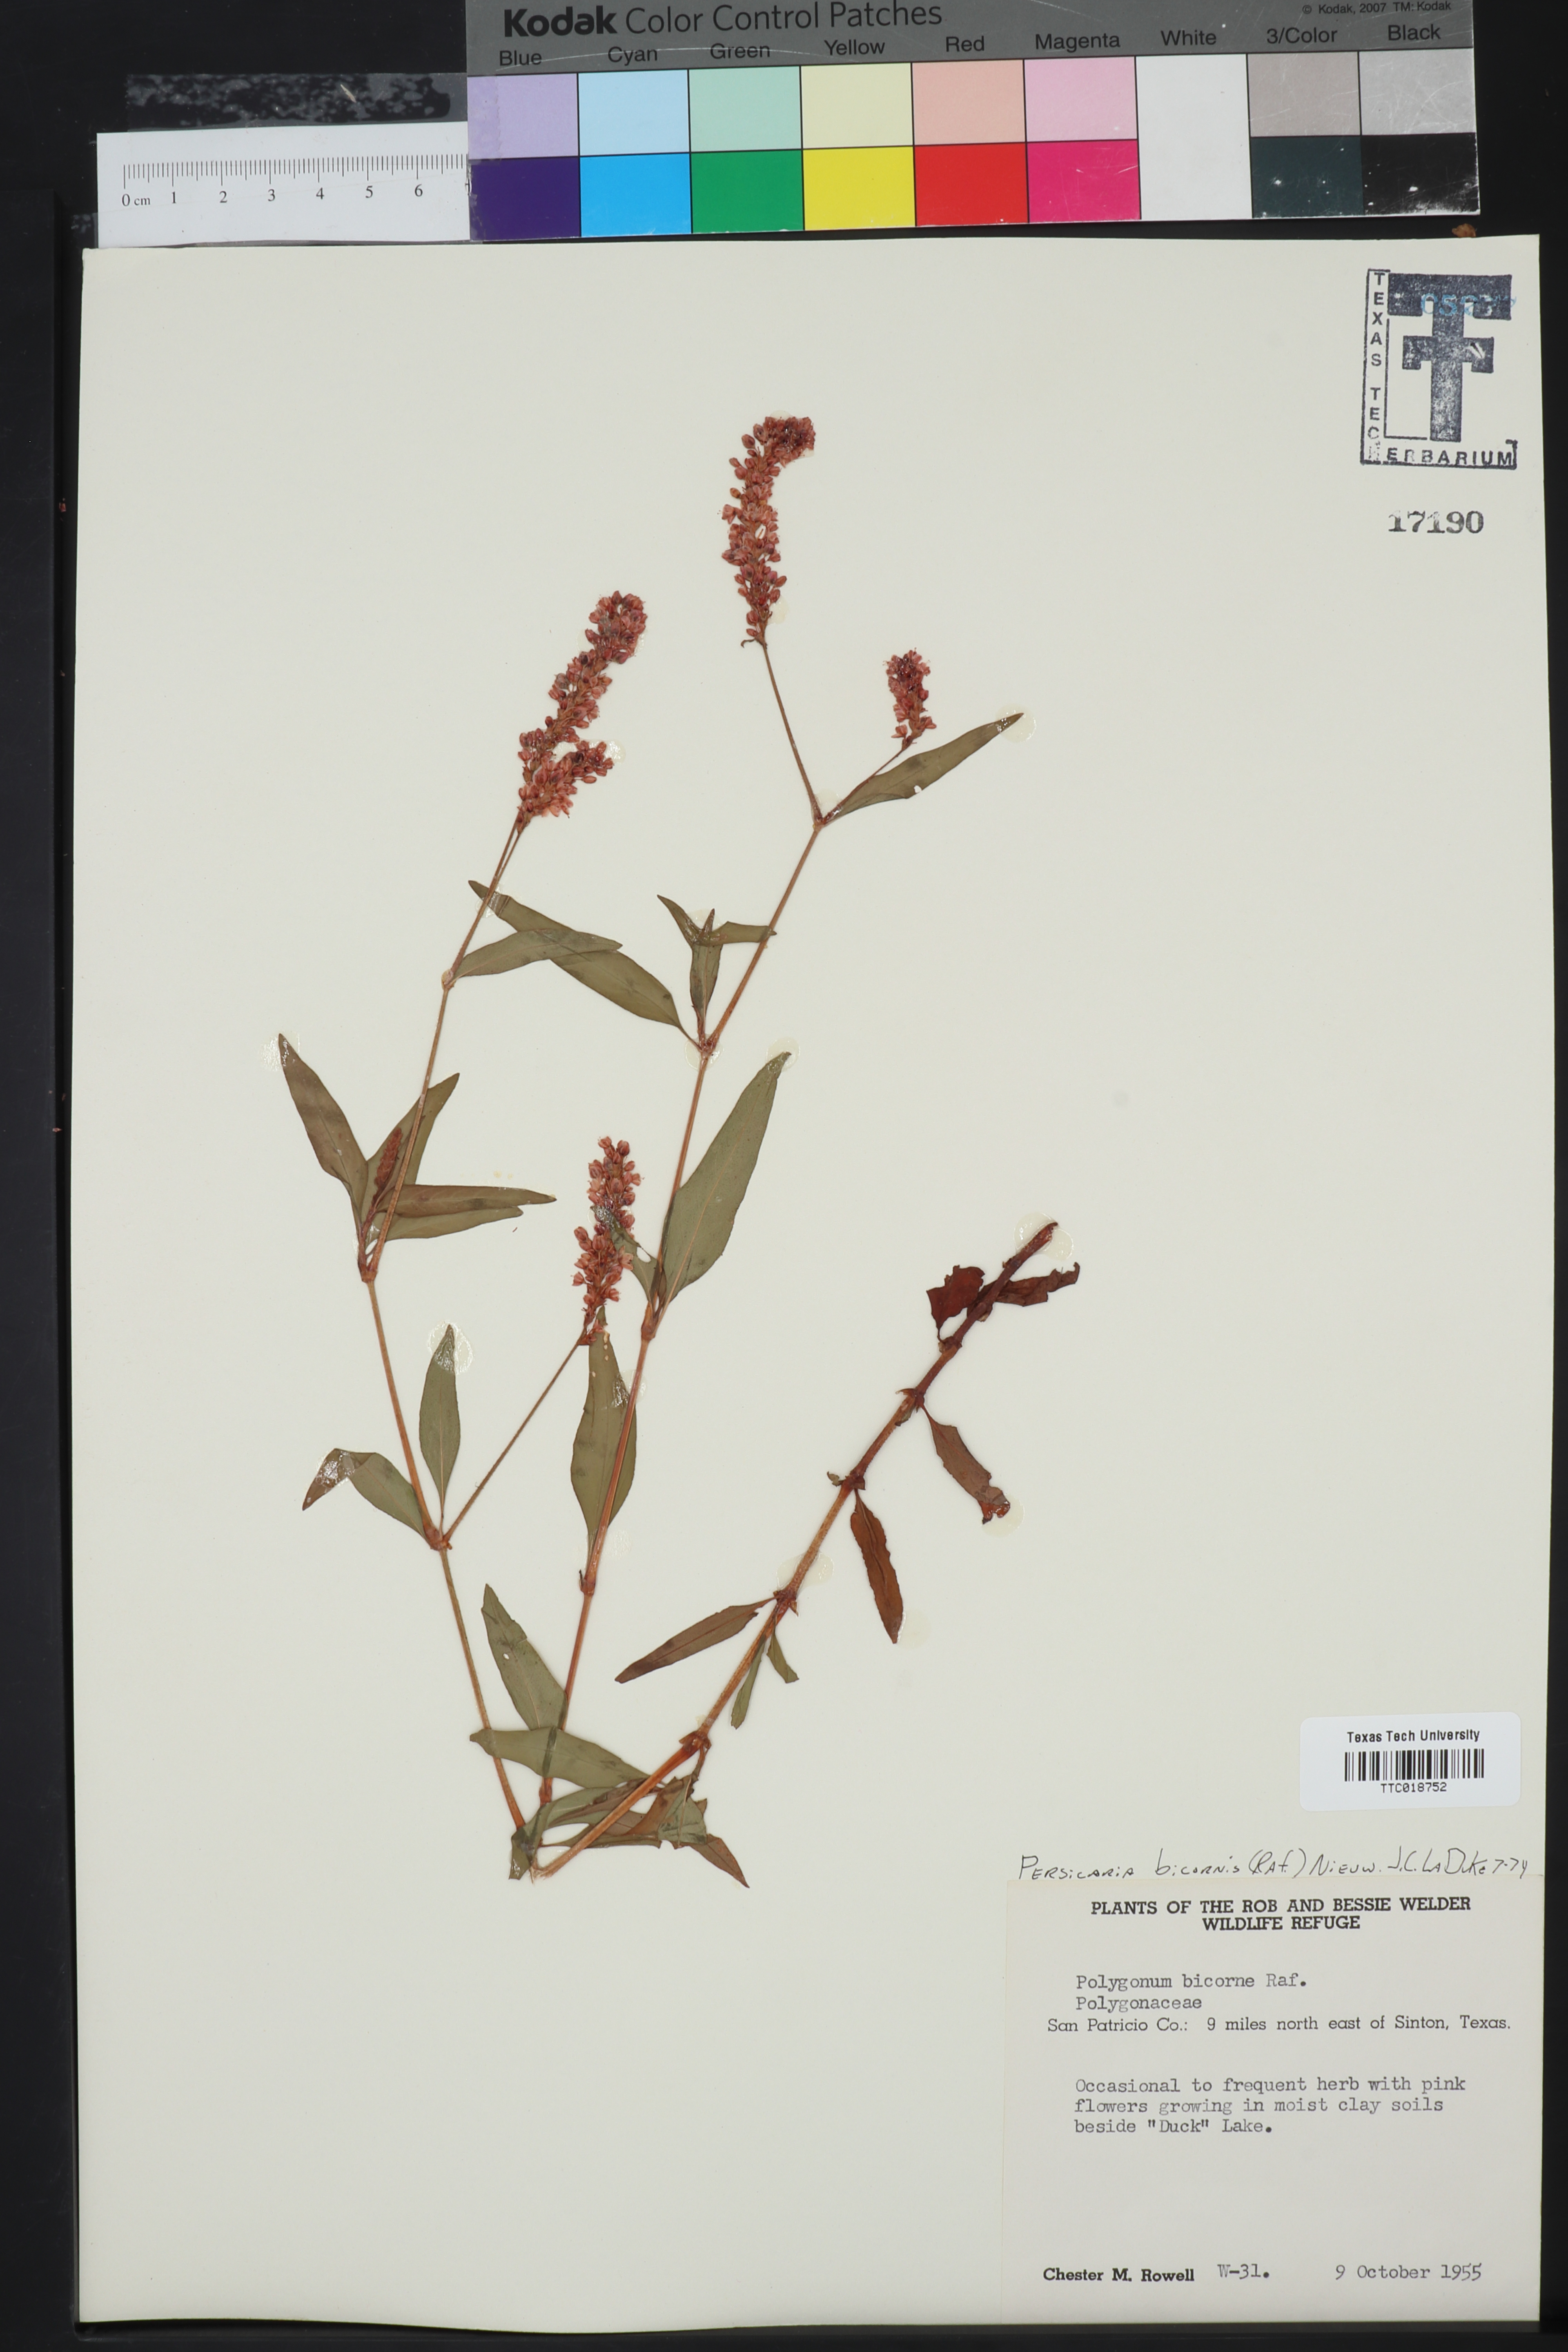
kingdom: Plantae
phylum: Tracheophyta
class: Magnoliopsida
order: Caryophyllales
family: Polygonaceae
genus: Persicaria
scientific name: Persicaria bicornis
